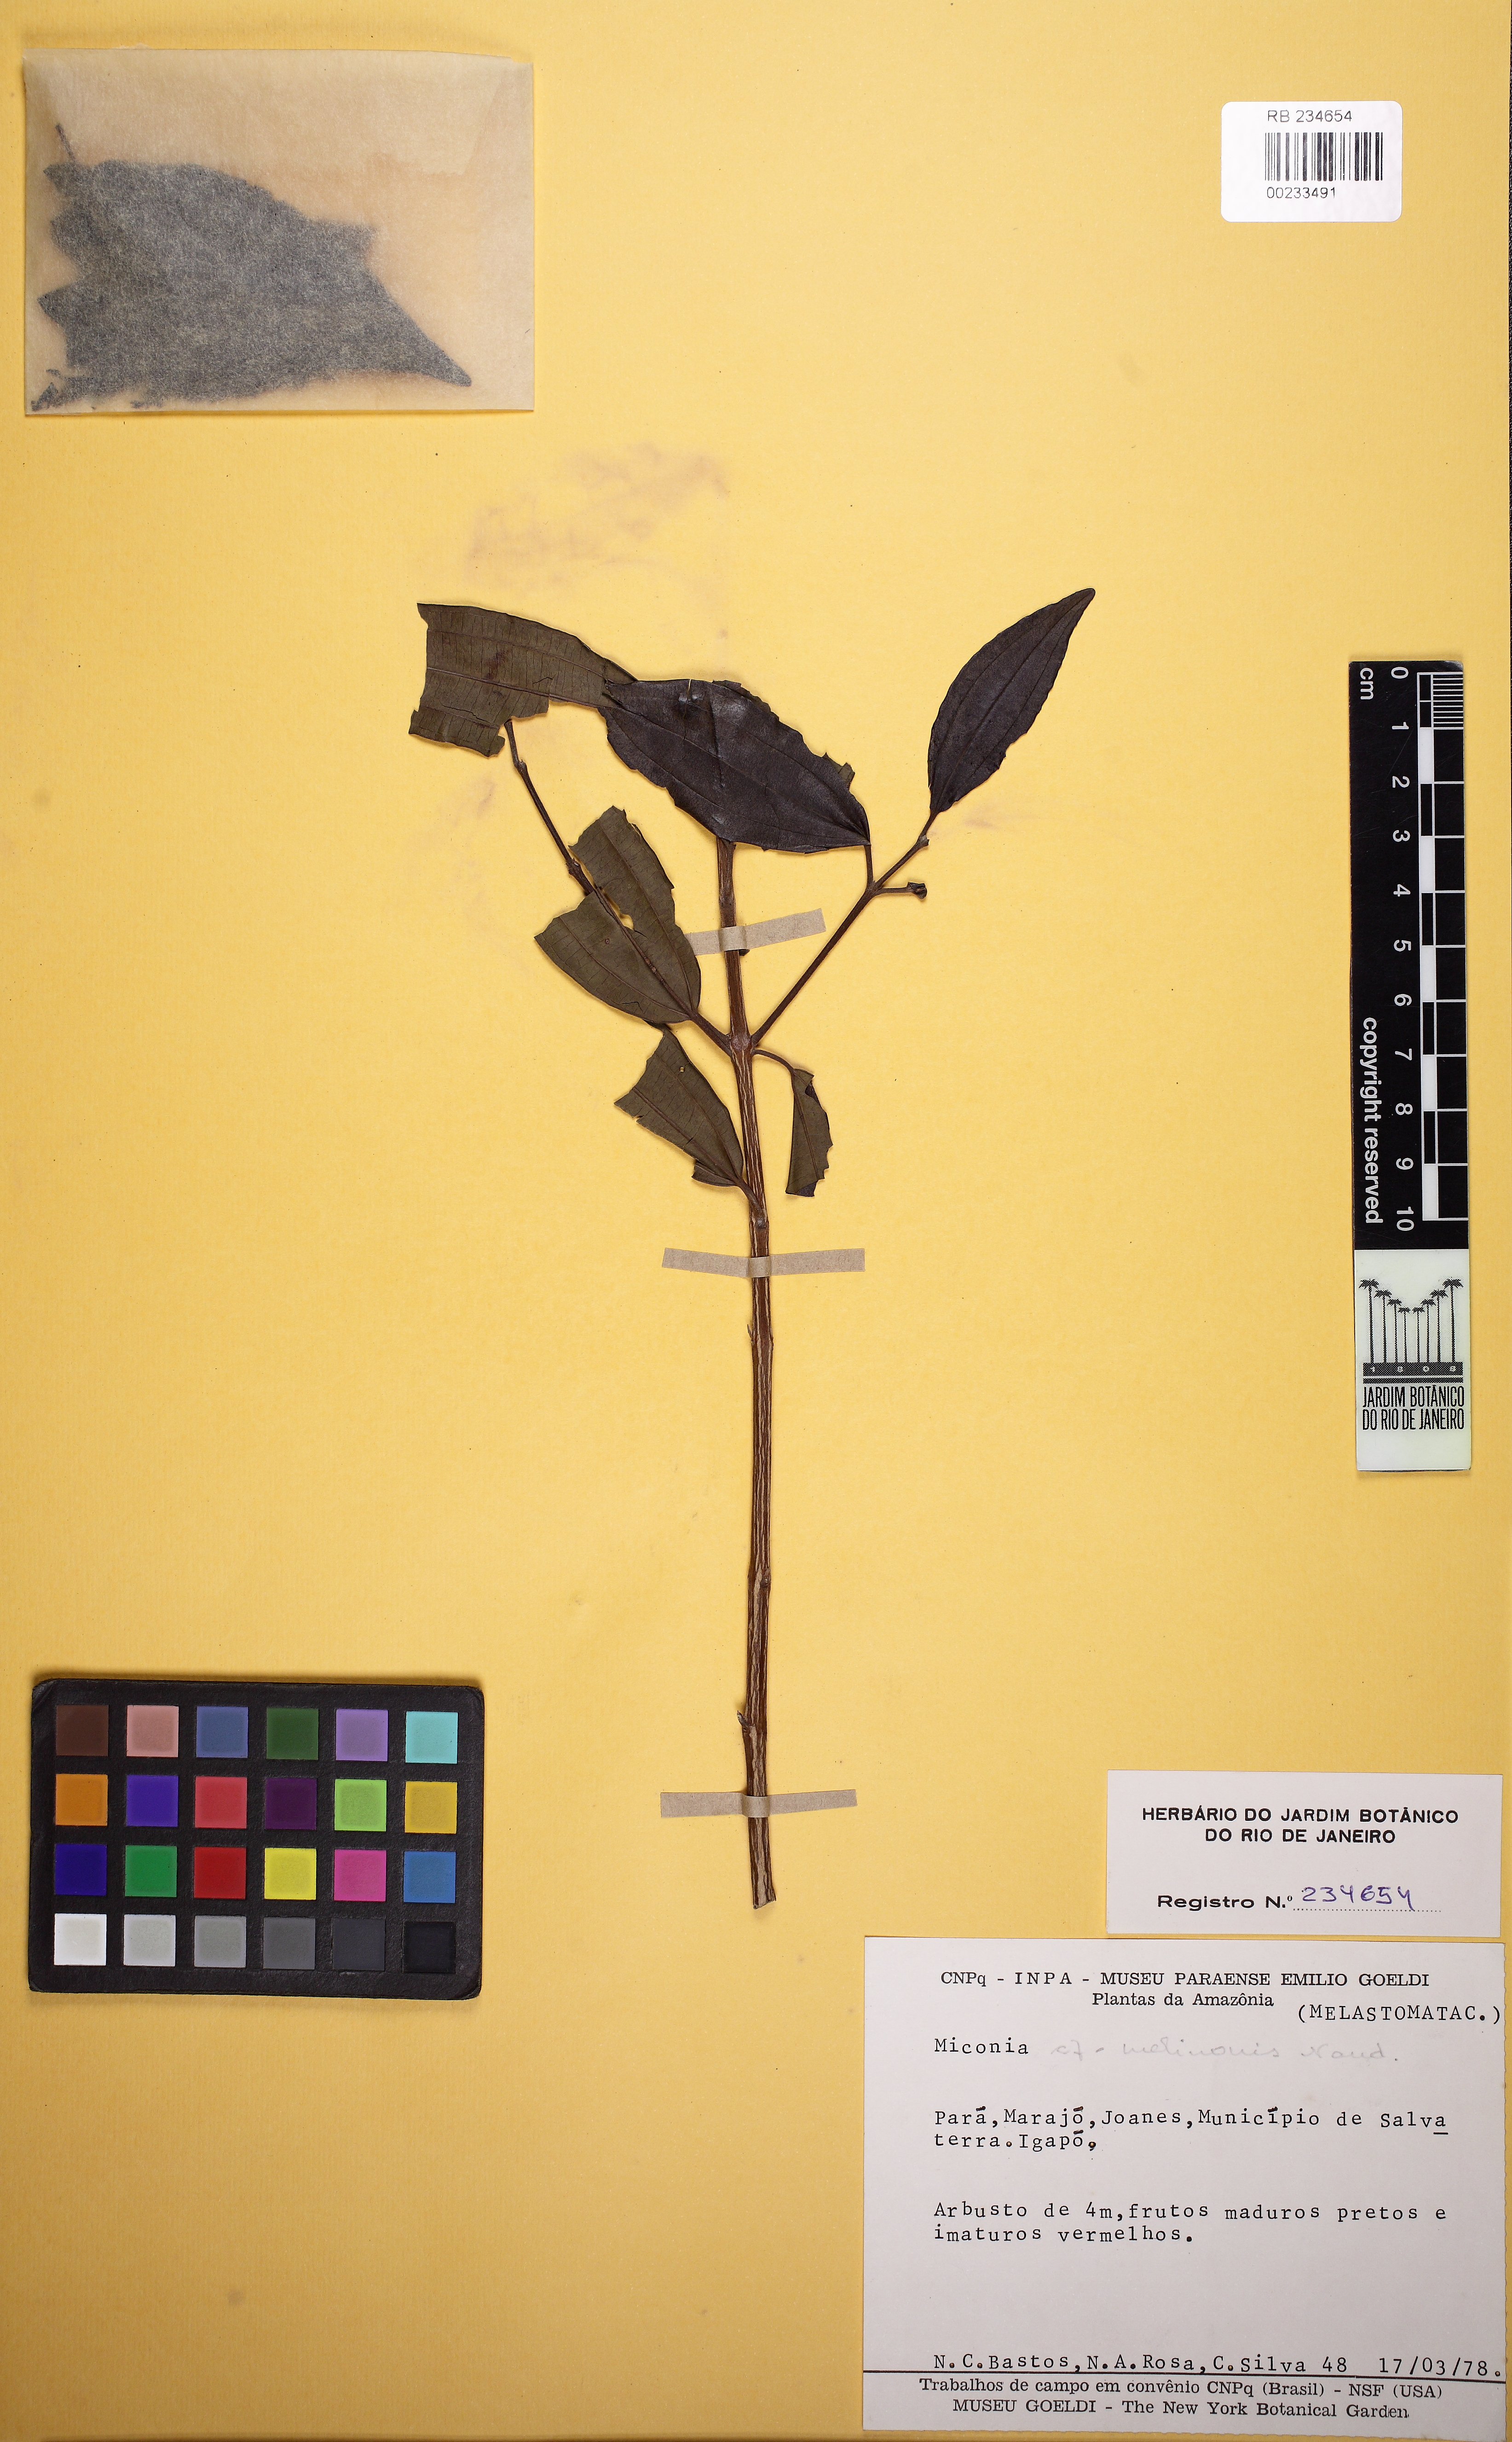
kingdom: Plantae
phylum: Tracheophyta
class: Magnoliopsida
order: Myrtales
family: Melastomataceae
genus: Miconia
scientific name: Miconia melinonis
